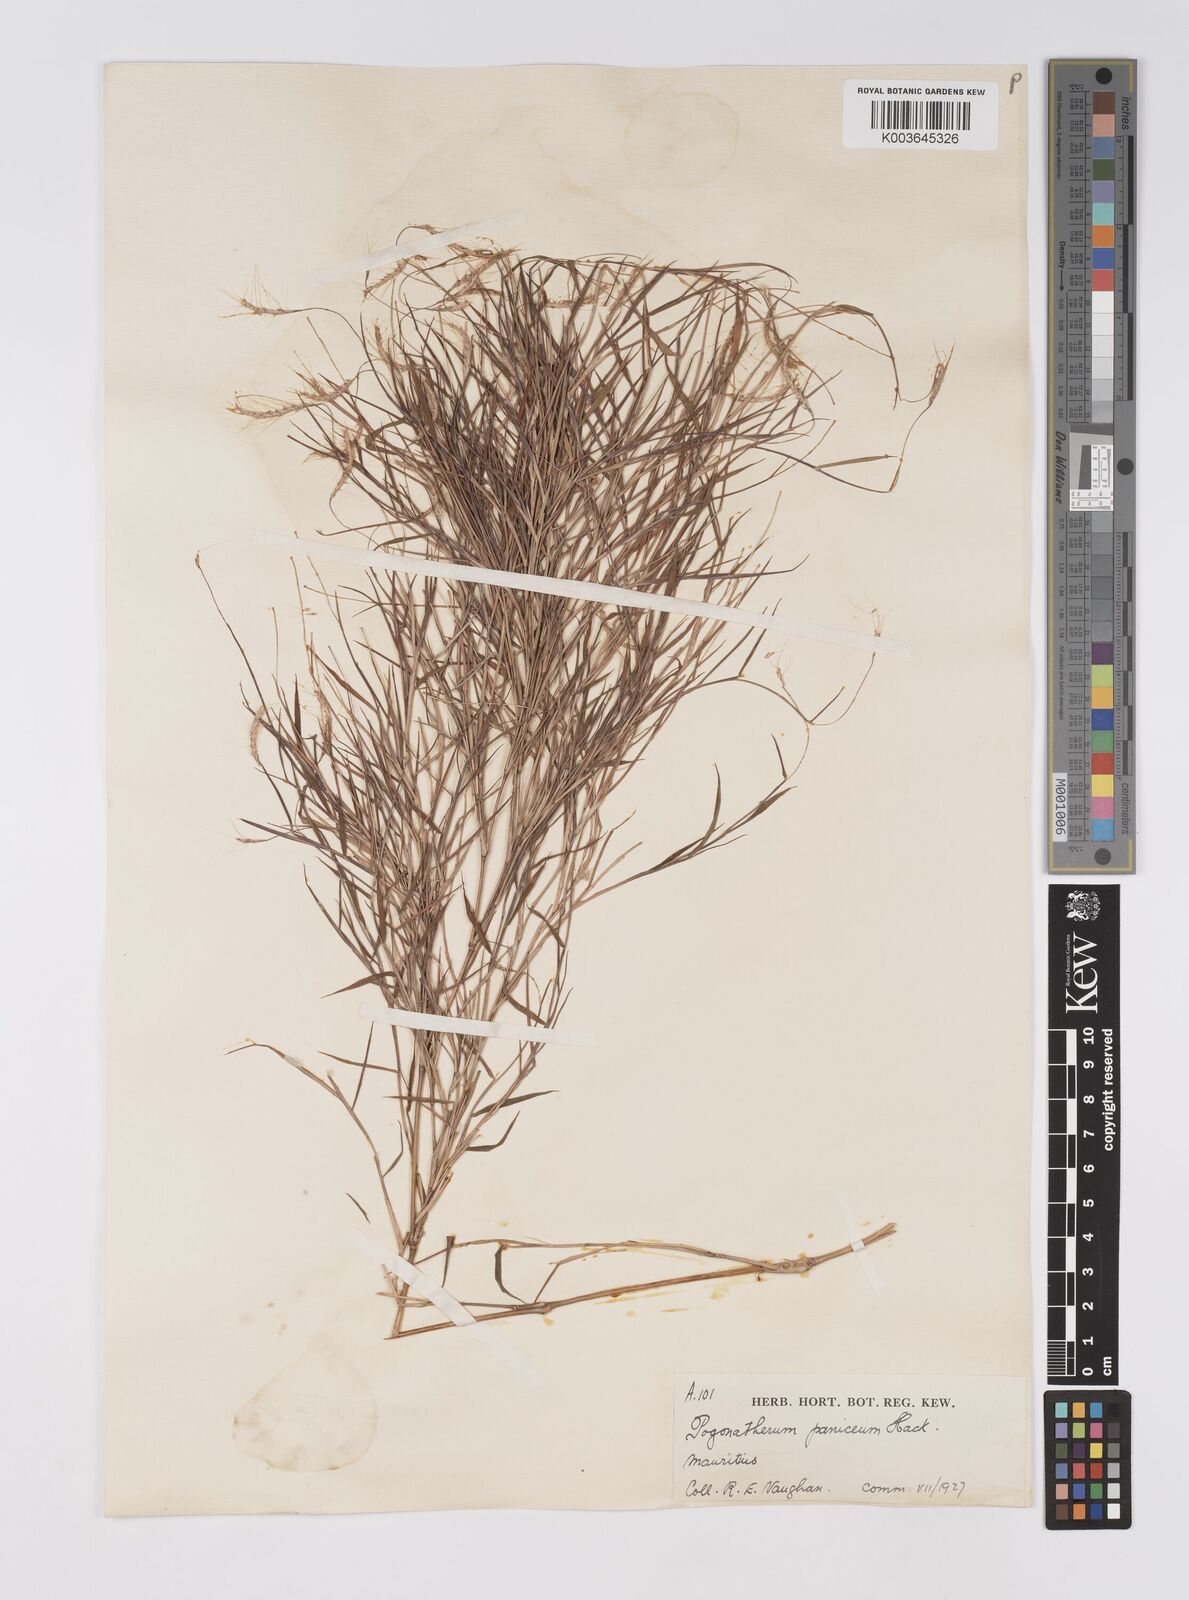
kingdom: Plantae
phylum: Tracheophyta
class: Liliopsida
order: Poales
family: Poaceae
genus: Pogonatherum
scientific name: Pogonatherum paniceum
